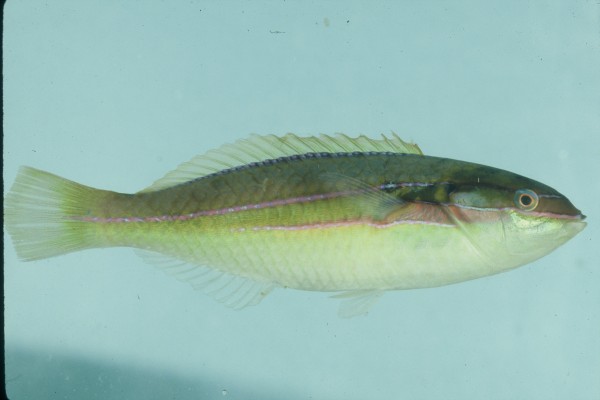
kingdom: Animalia
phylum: Chordata
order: Perciformes
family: Labridae
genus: Stethojulis
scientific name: Stethojulis strigiventer
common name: Three-ribbon wrasse
